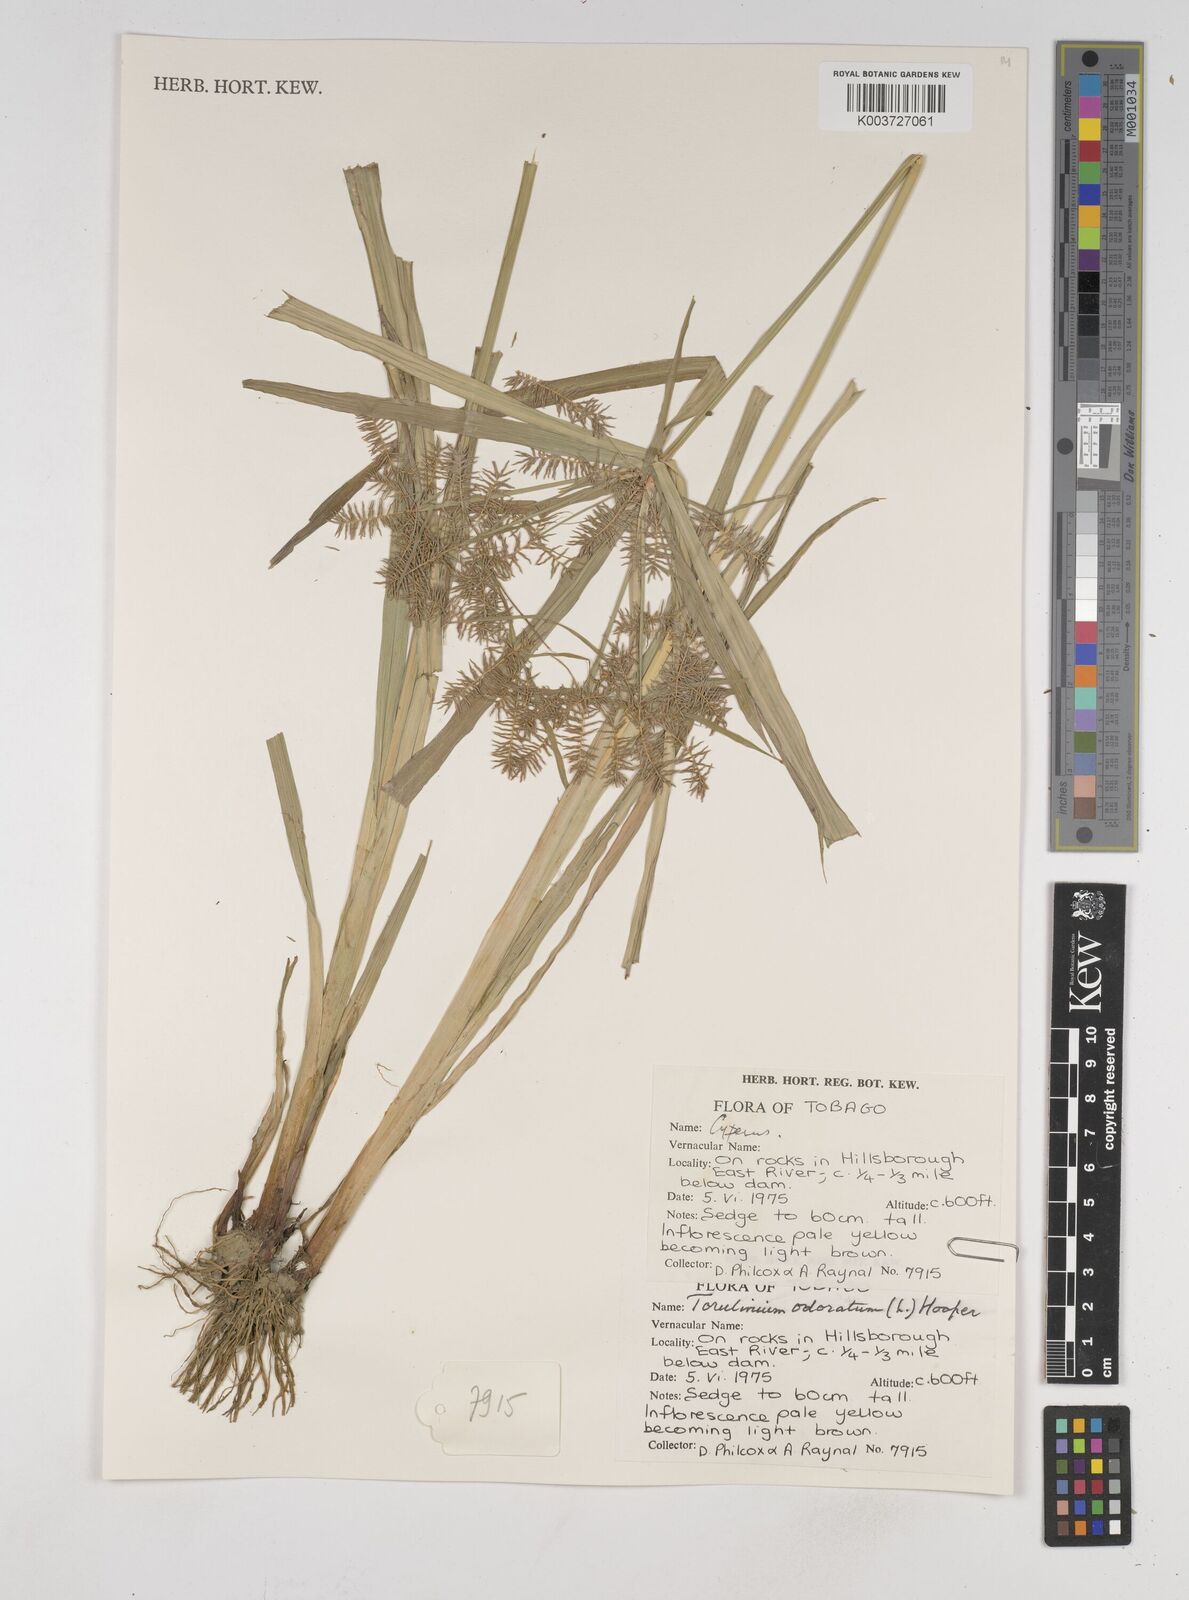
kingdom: Plantae
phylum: Tracheophyta
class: Liliopsida
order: Poales
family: Cyperaceae
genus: Cyperus
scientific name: Cyperus odoratus
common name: Fragrant flatsedge
